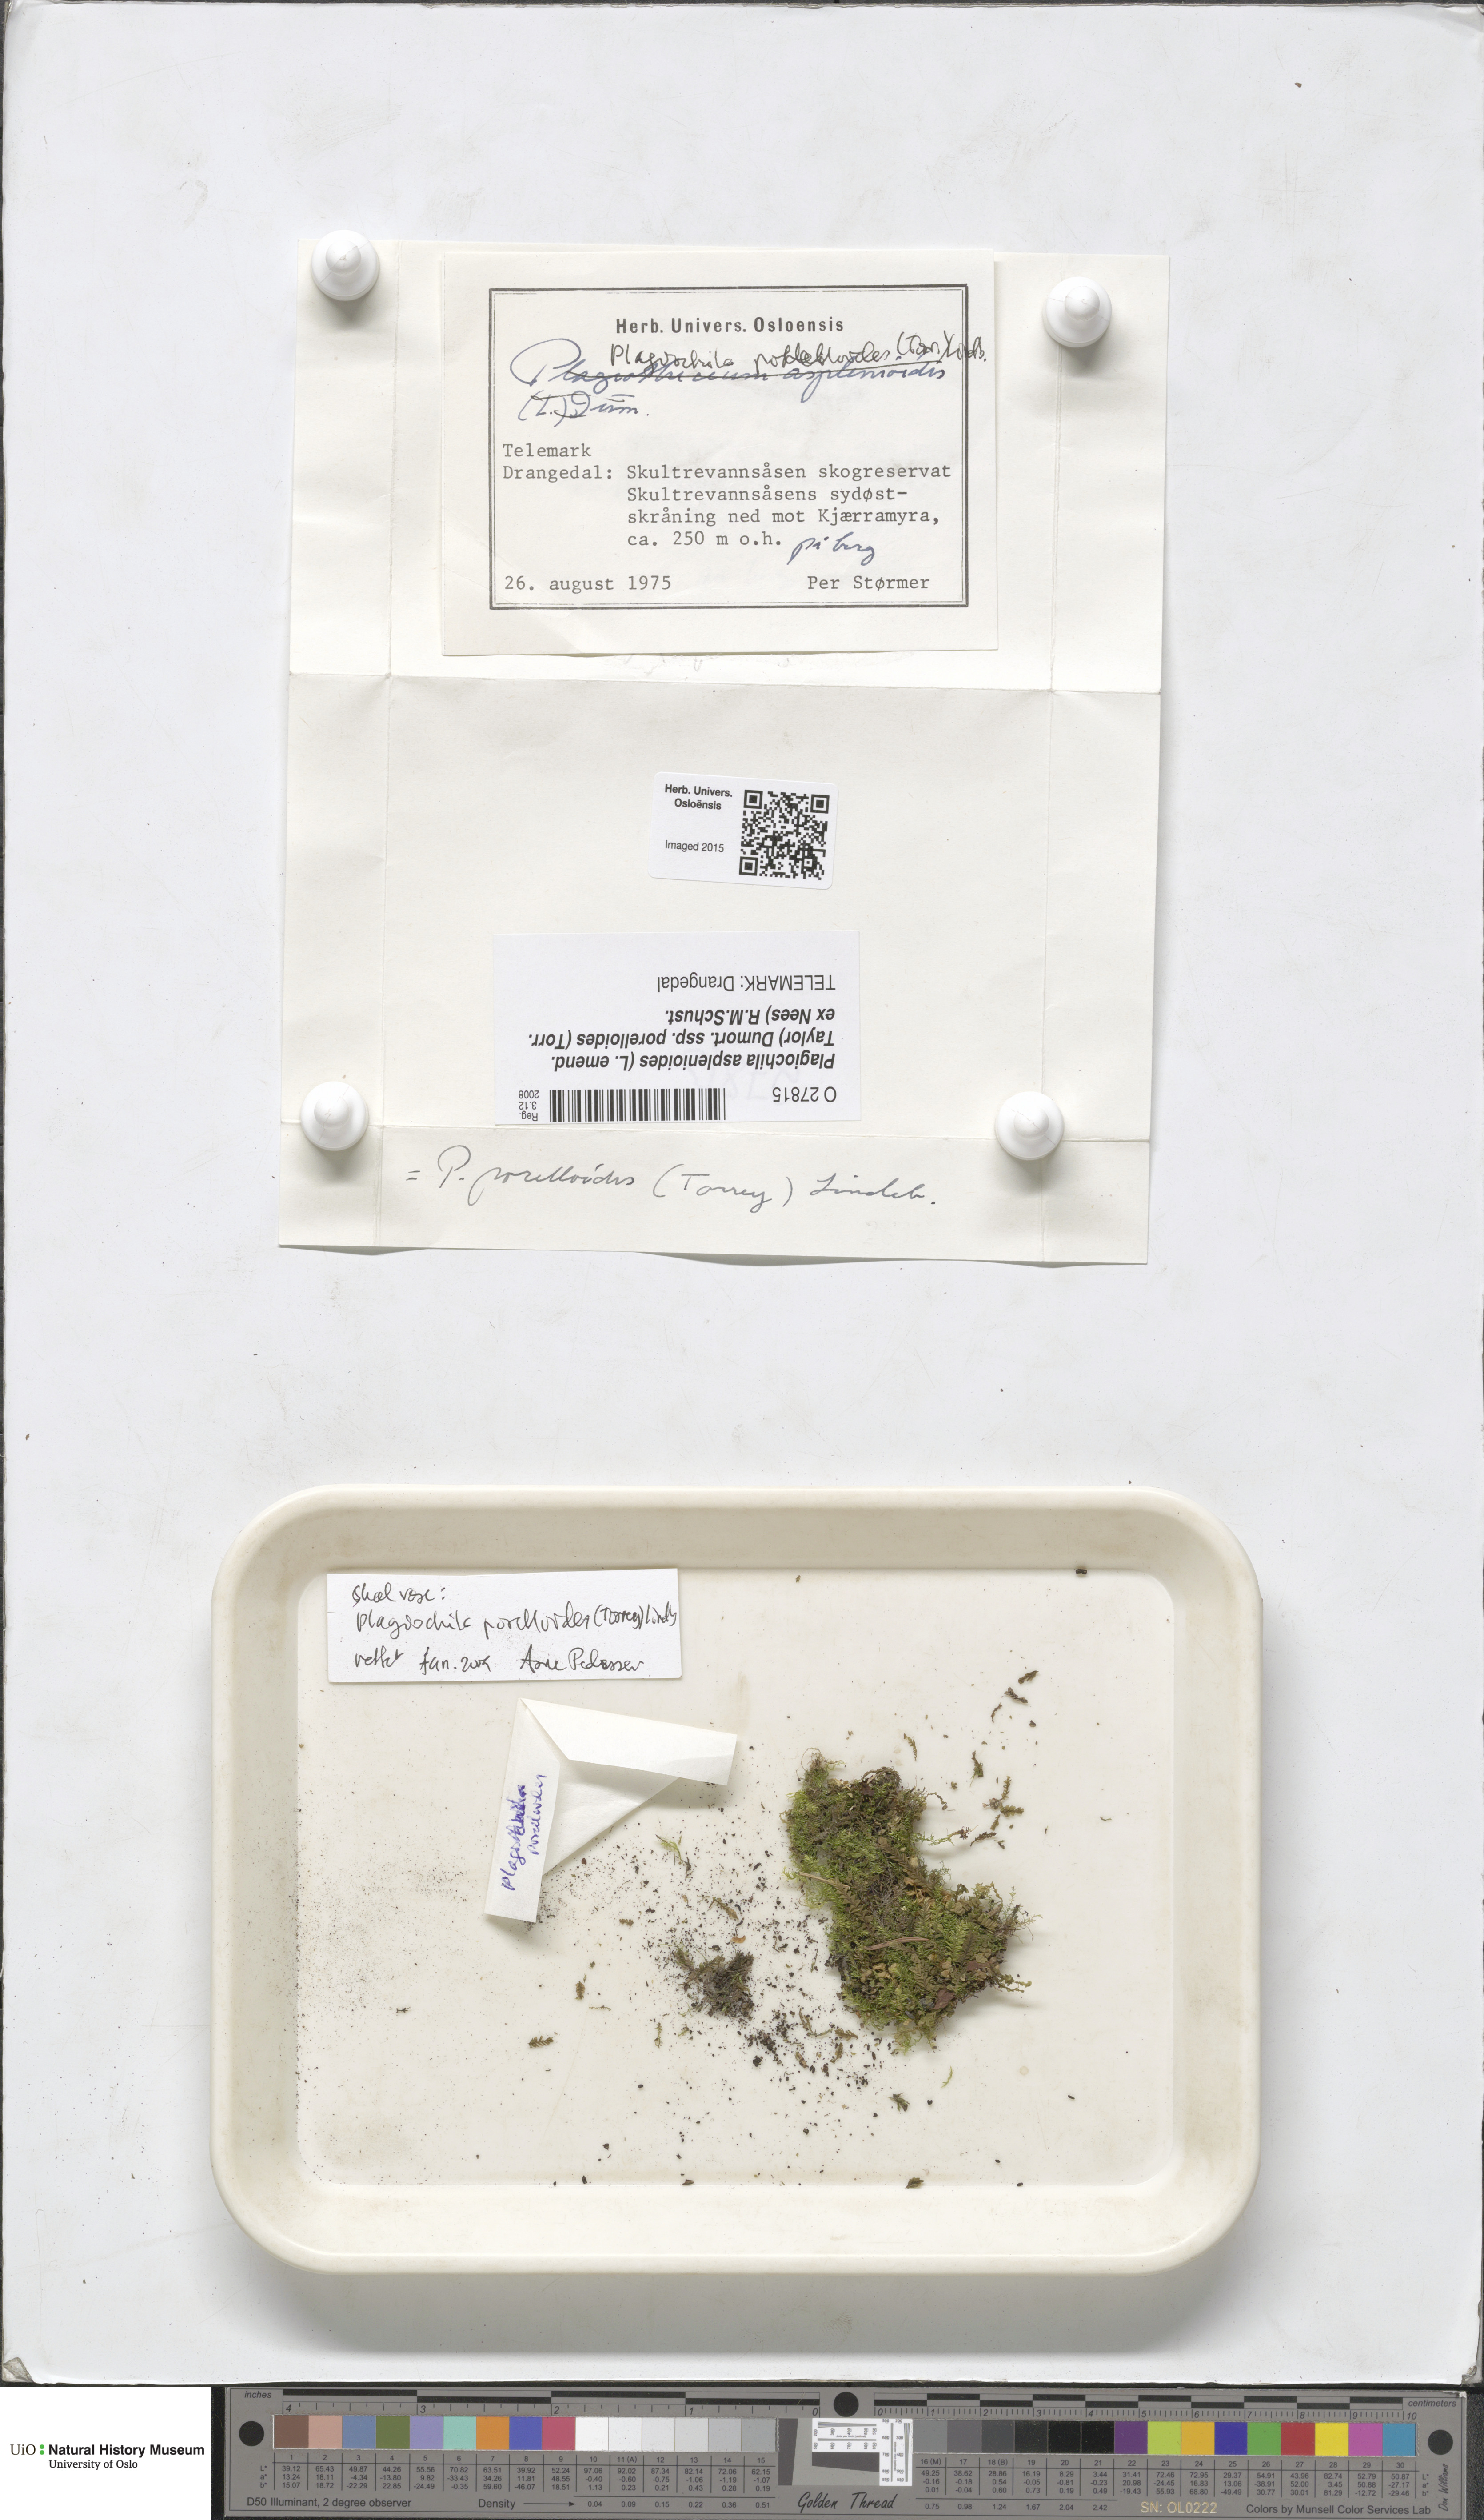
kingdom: Plantae
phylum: Marchantiophyta
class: Jungermanniopsida
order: Jungermanniales
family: Plagiochilaceae
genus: Plagiochila
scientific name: Plagiochila porelloides
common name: Lesser featherwort
